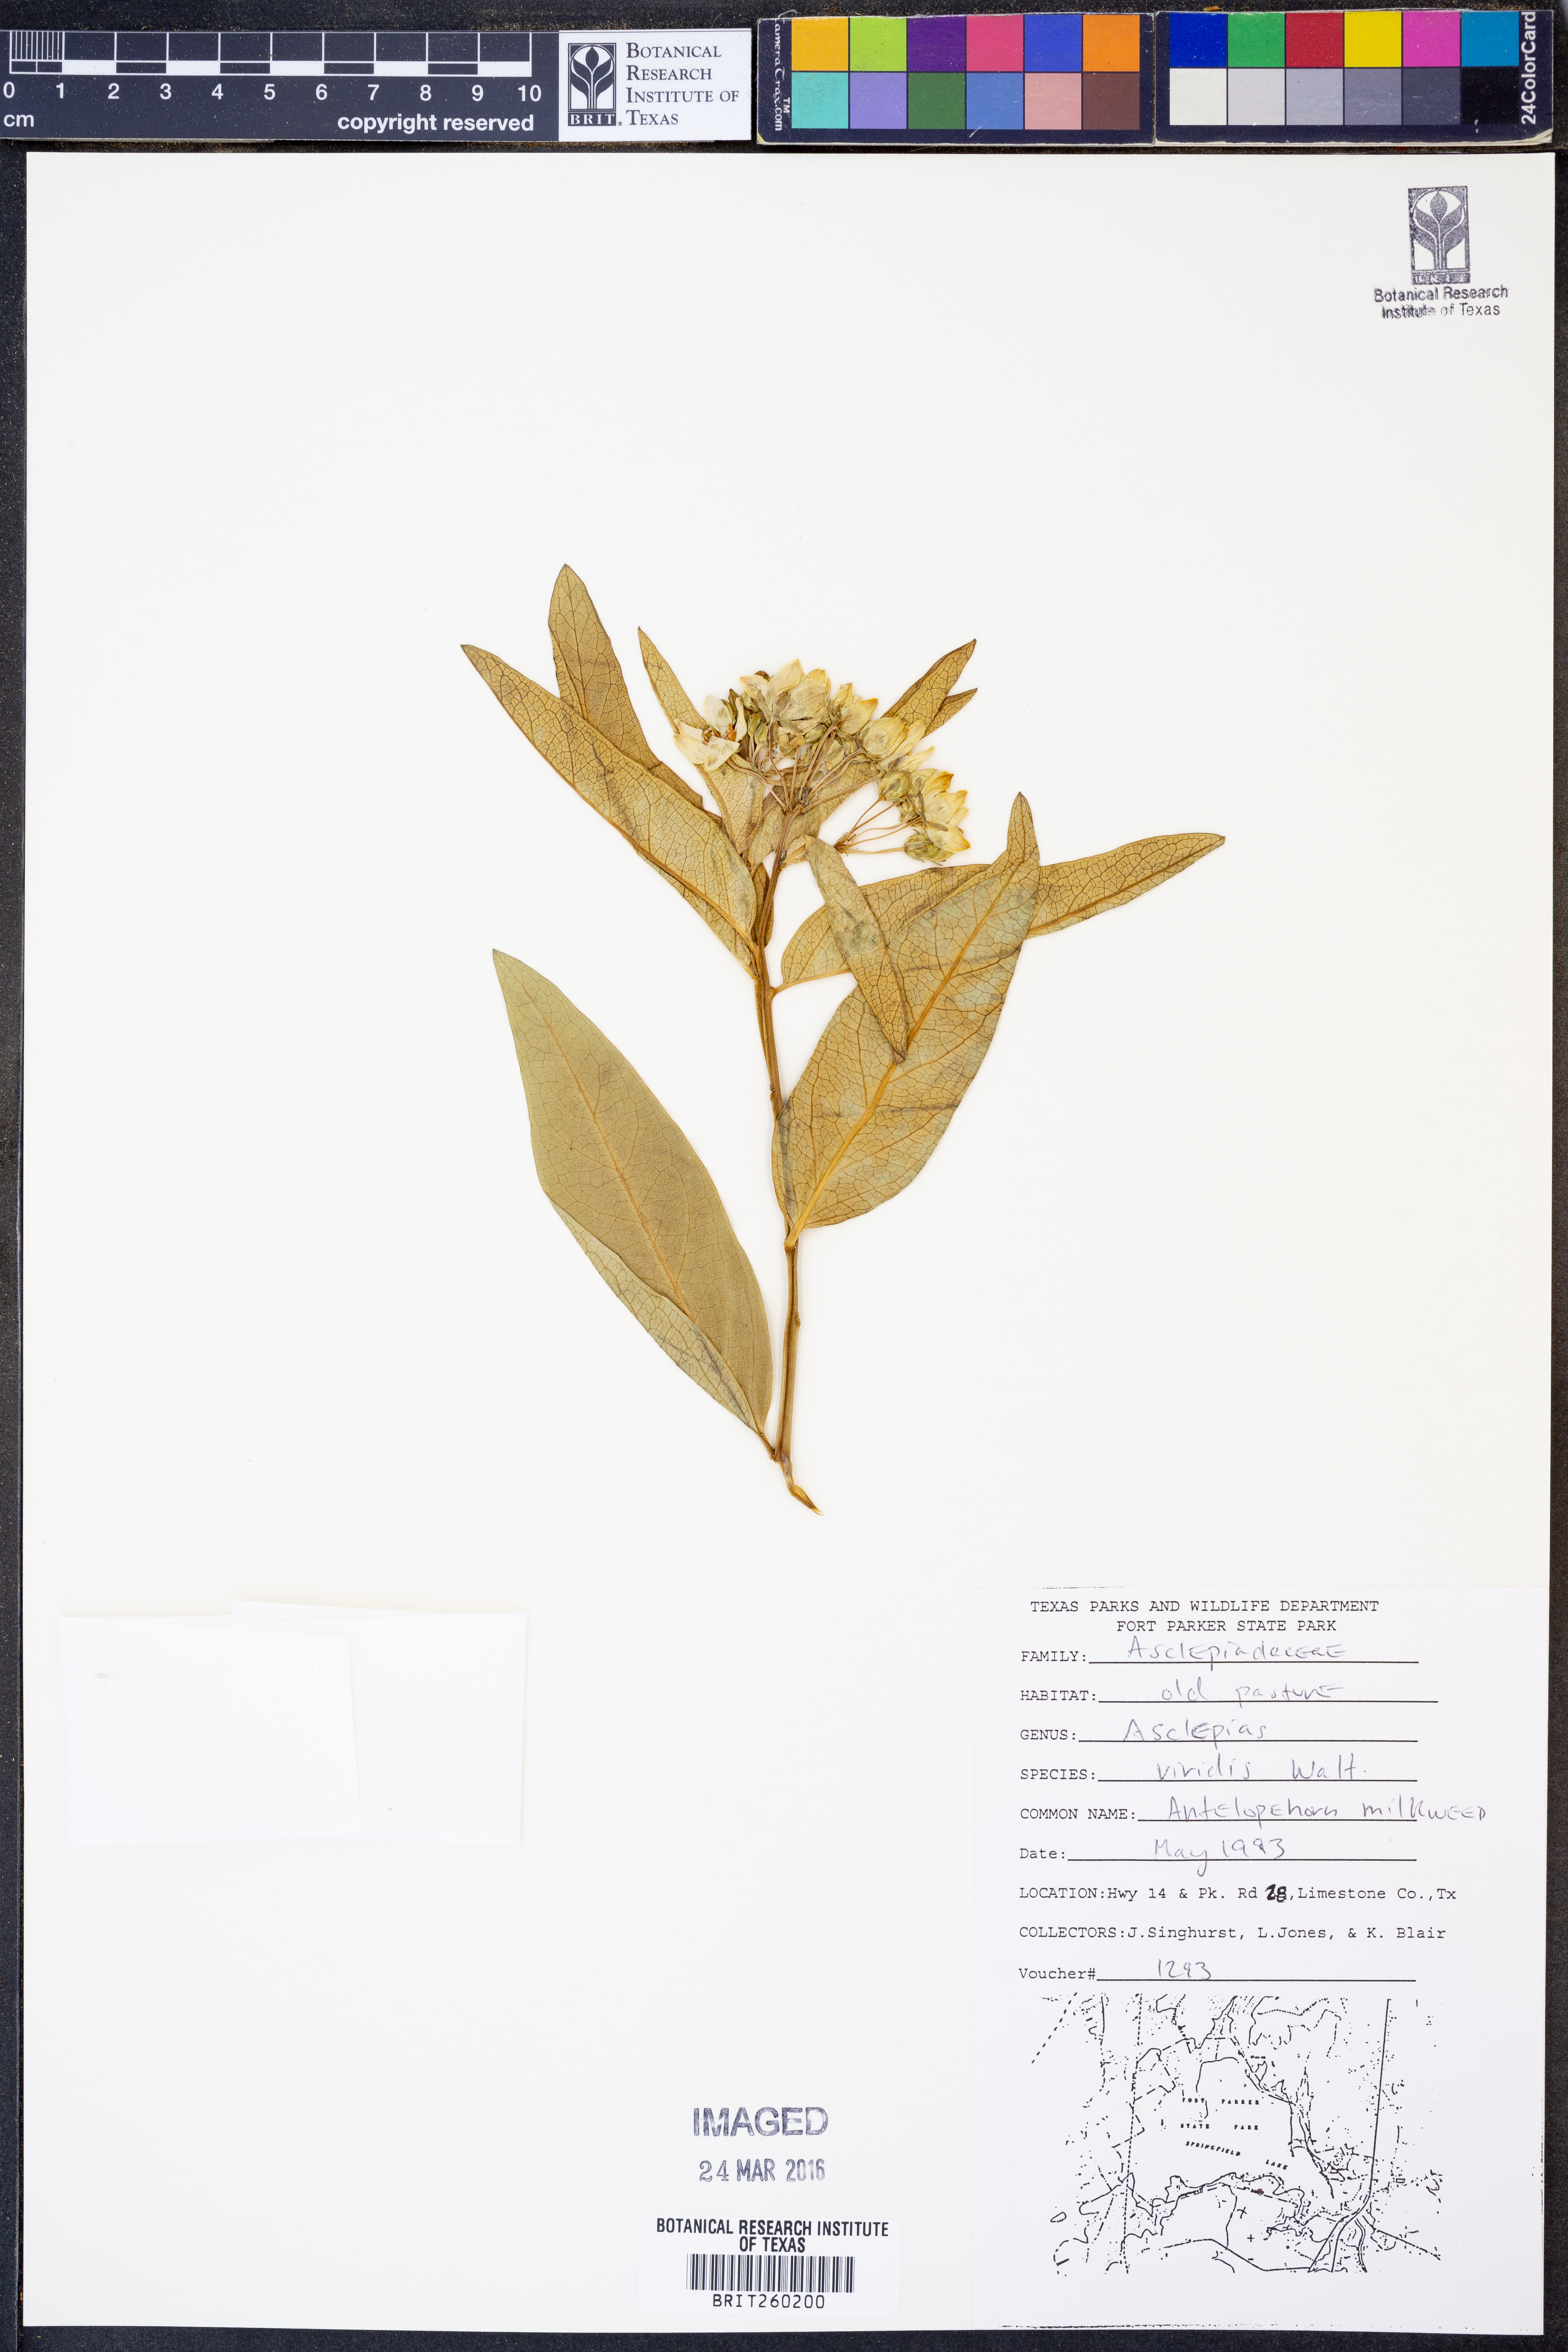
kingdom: Plantae
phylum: Tracheophyta
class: Magnoliopsida
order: Gentianales
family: Apocynaceae
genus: Asclepias
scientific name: Asclepias viridis
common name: Antelope-horns
